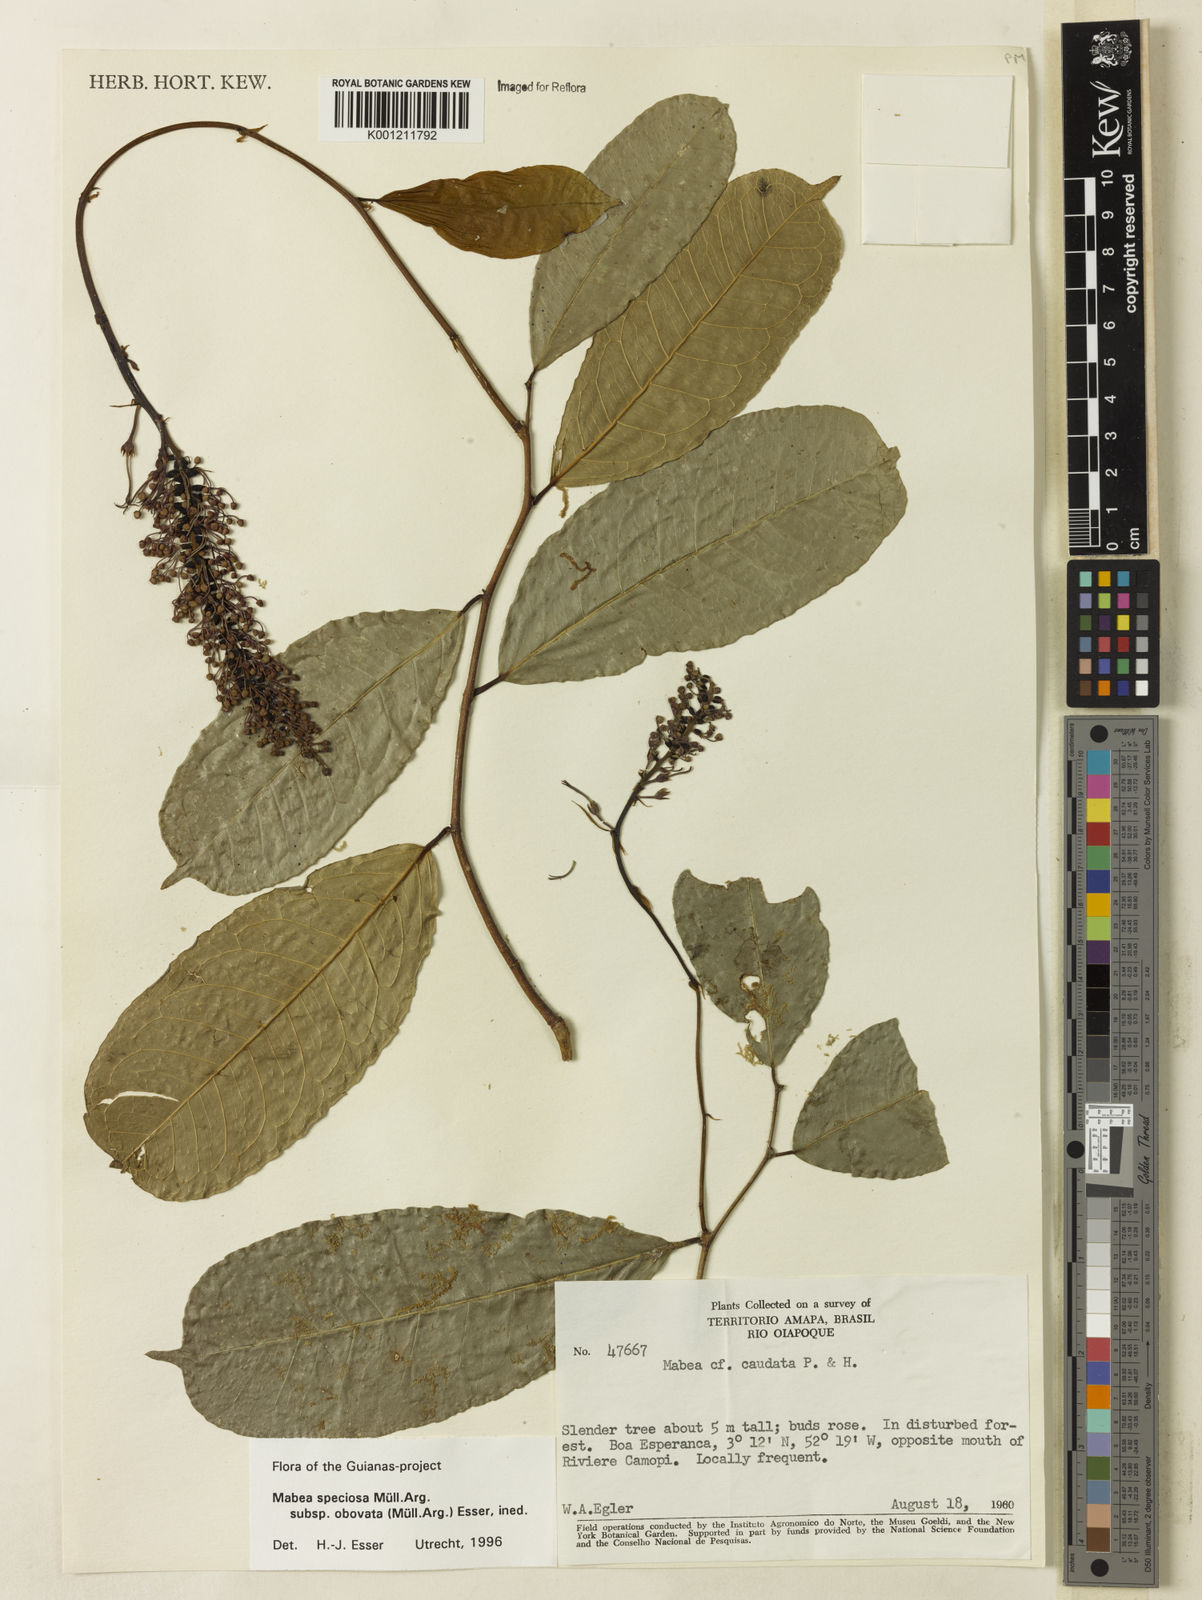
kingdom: Plantae
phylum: Tracheophyta
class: Magnoliopsida
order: Malpighiales
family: Euphorbiaceae
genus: Mabea
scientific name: Mabea
